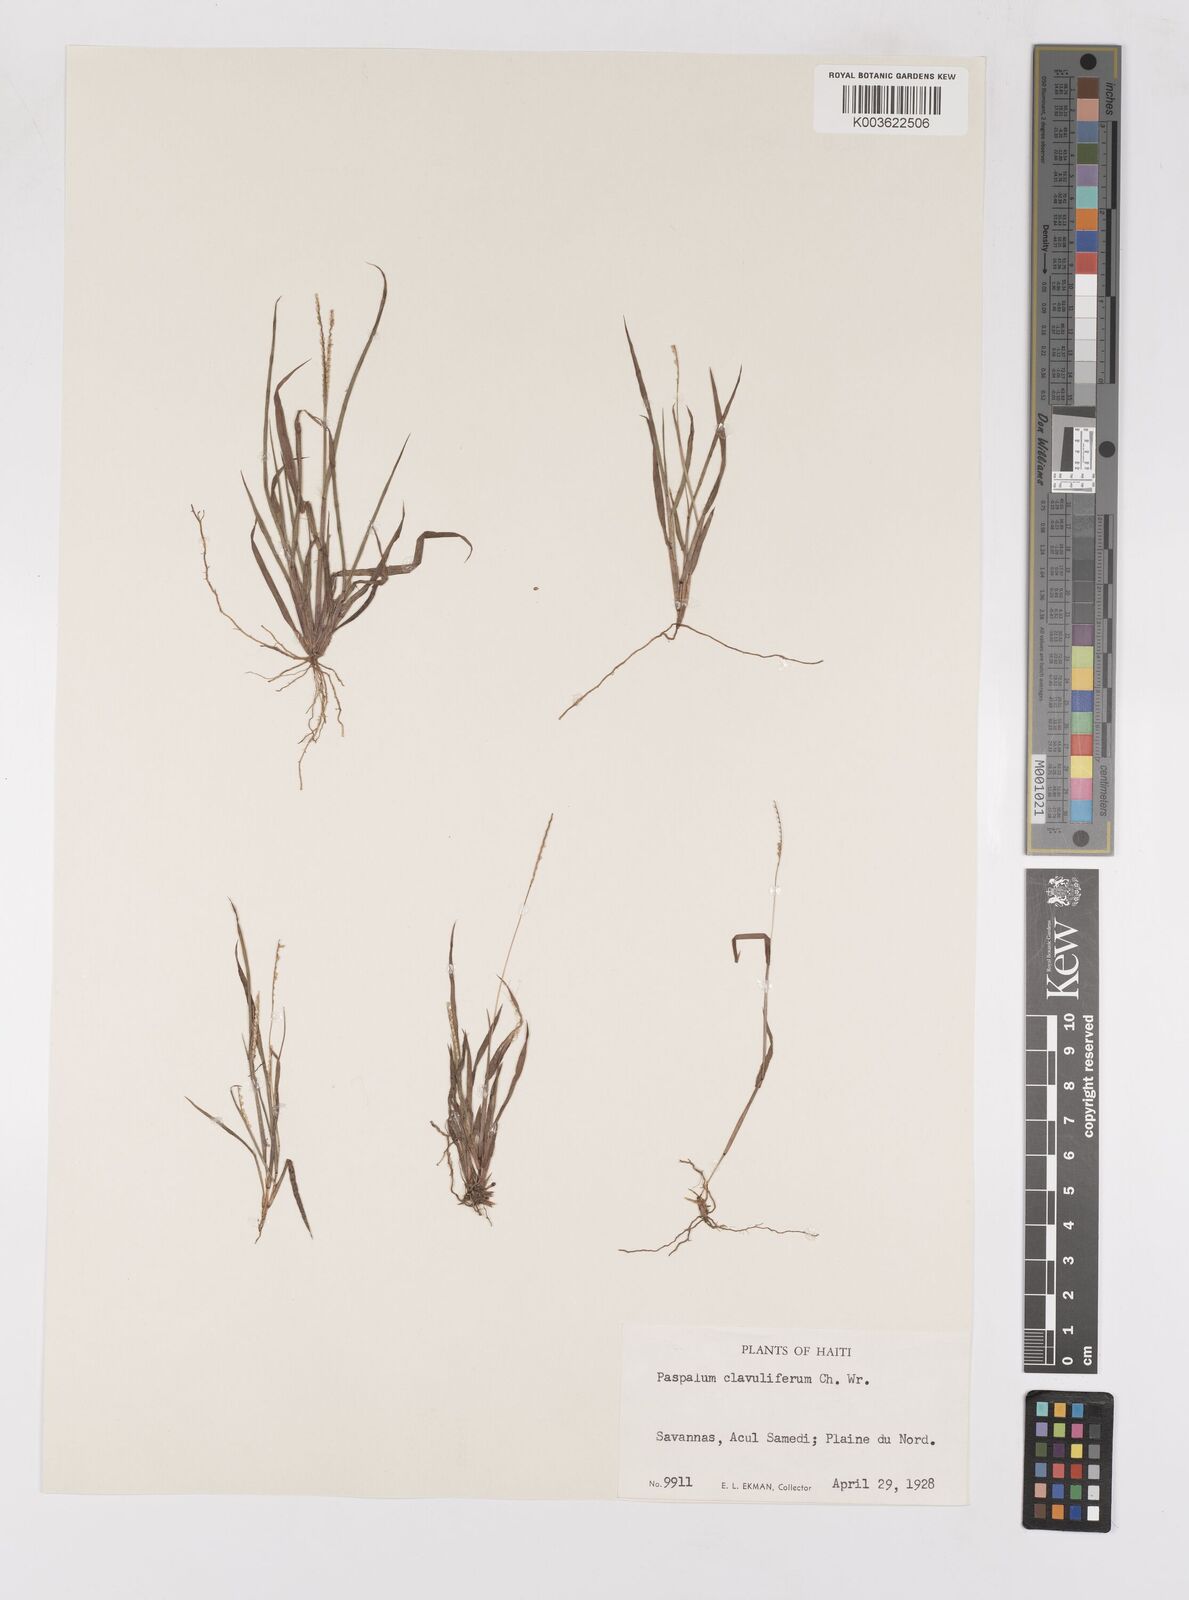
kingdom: Plantae
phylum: Tracheophyta
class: Liliopsida
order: Poales
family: Poaceae
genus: Paspalum
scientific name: Paspalum clavuliferum
